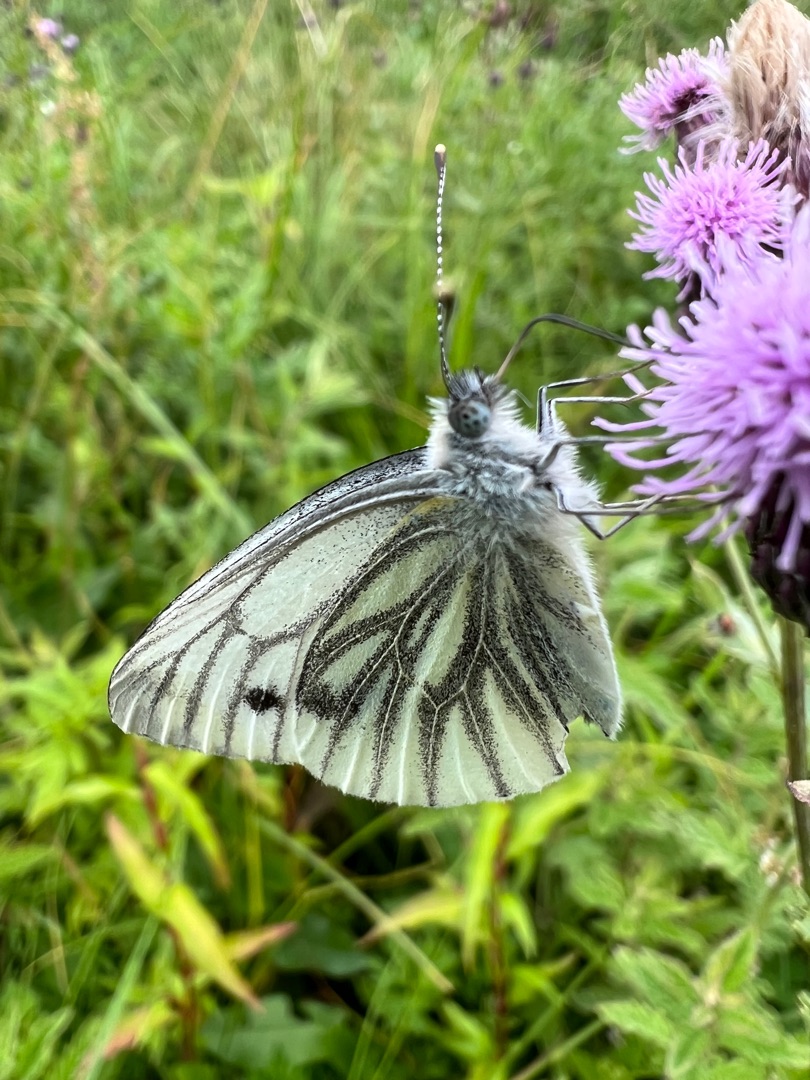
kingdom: Animalia
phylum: Arthropoda
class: Insecta
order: Lepidoptera
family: Pieridae
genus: Pieris
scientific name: Pieris napi
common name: Grønåret kålsommerfugl
